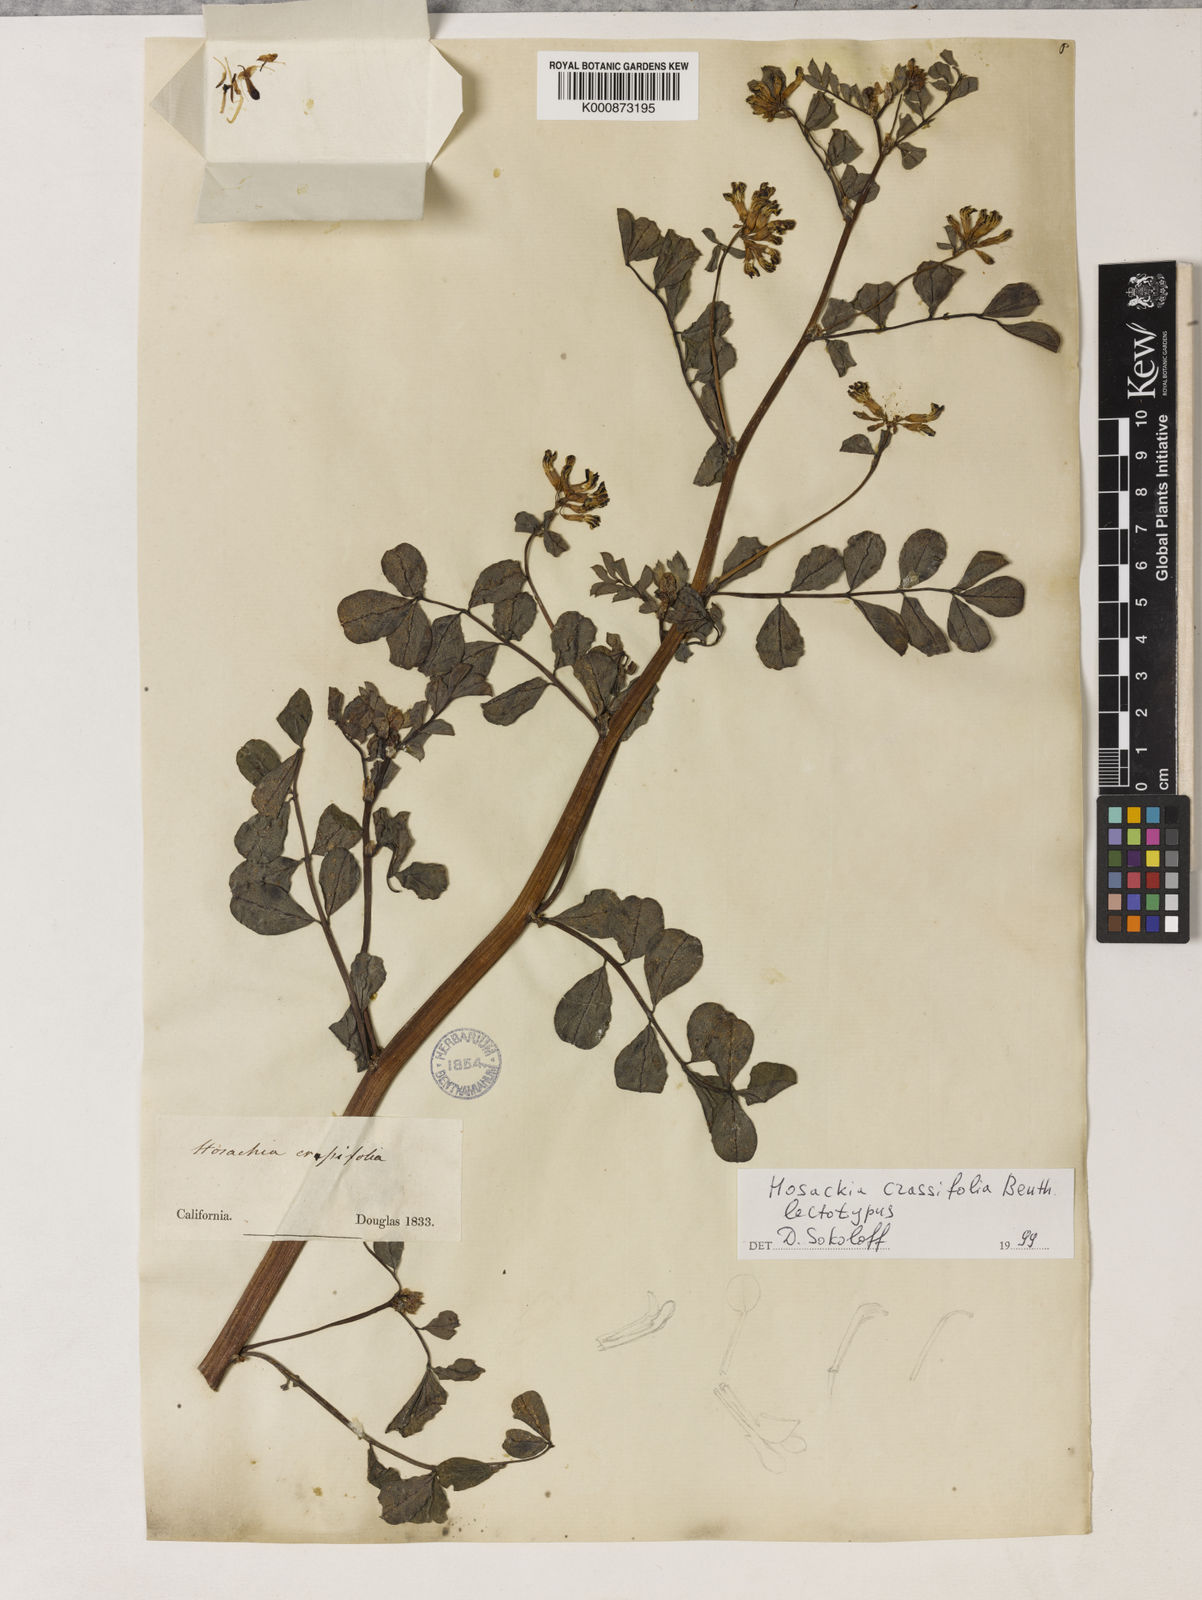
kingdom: Plantae
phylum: Tracheophyta
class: Magnoliopsida
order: Fabales
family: Fabaceae
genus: Hosackia
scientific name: Hosackia crassifolia
